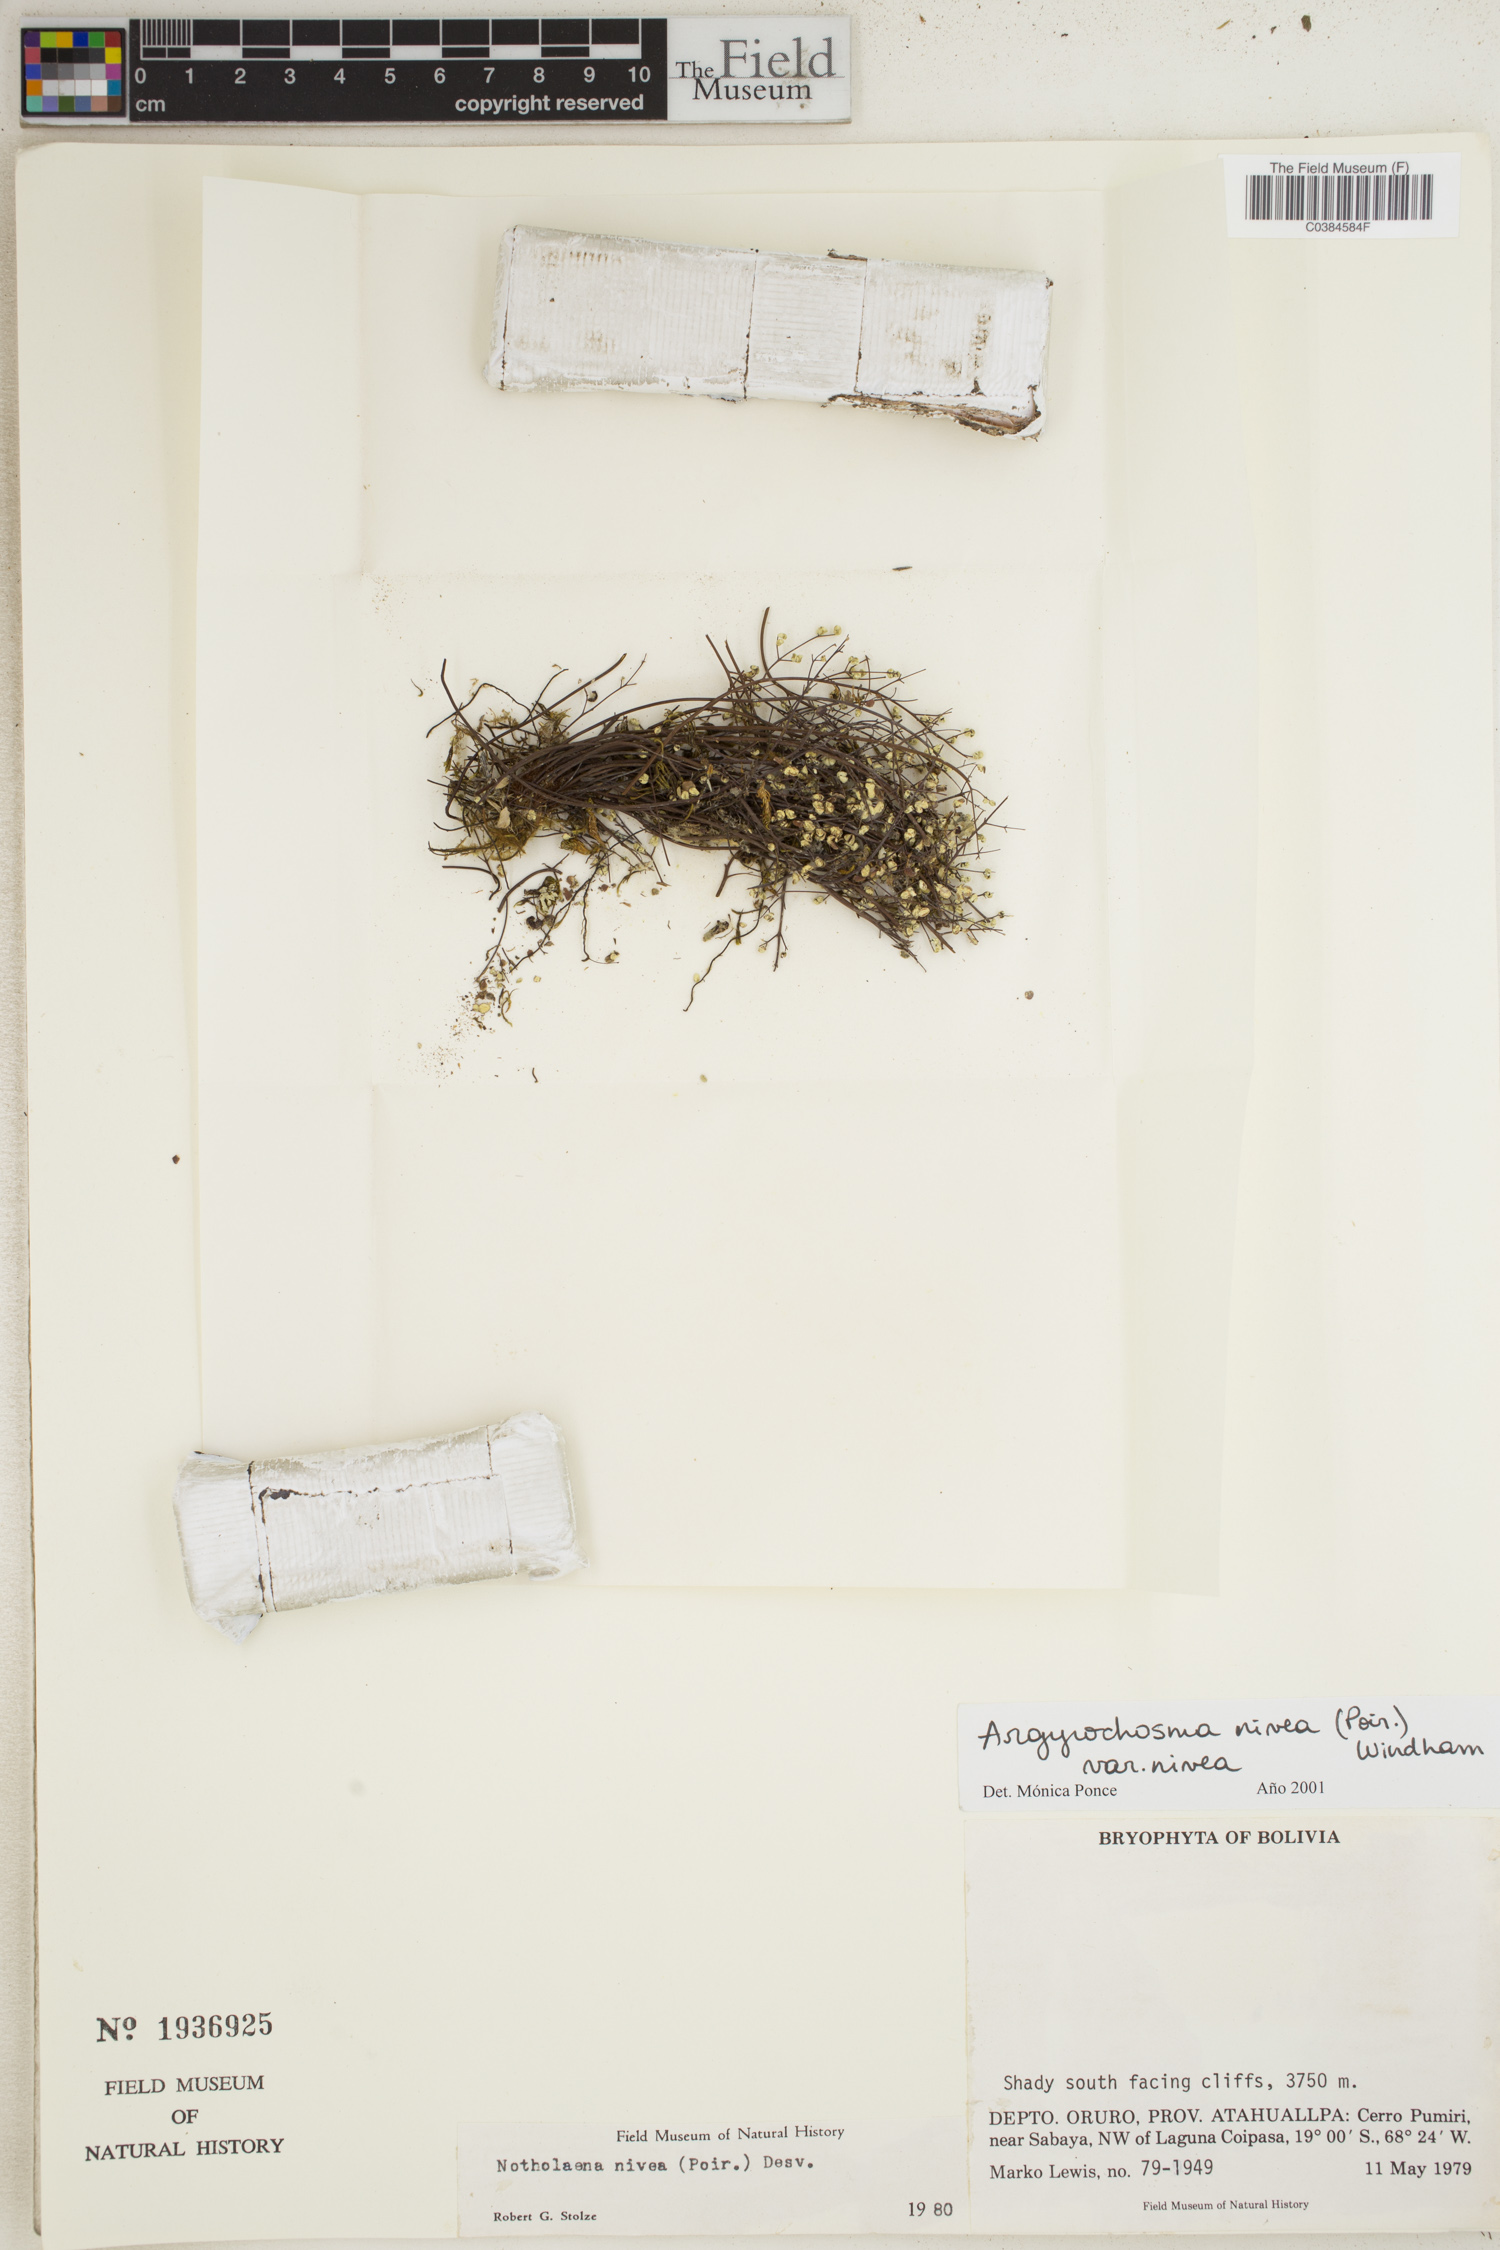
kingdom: Plantae
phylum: Tracheophyta
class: Polypodiopsida
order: Polypodiales
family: Pteridaceae
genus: Argyrochosma
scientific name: Argyrochosma nivea
